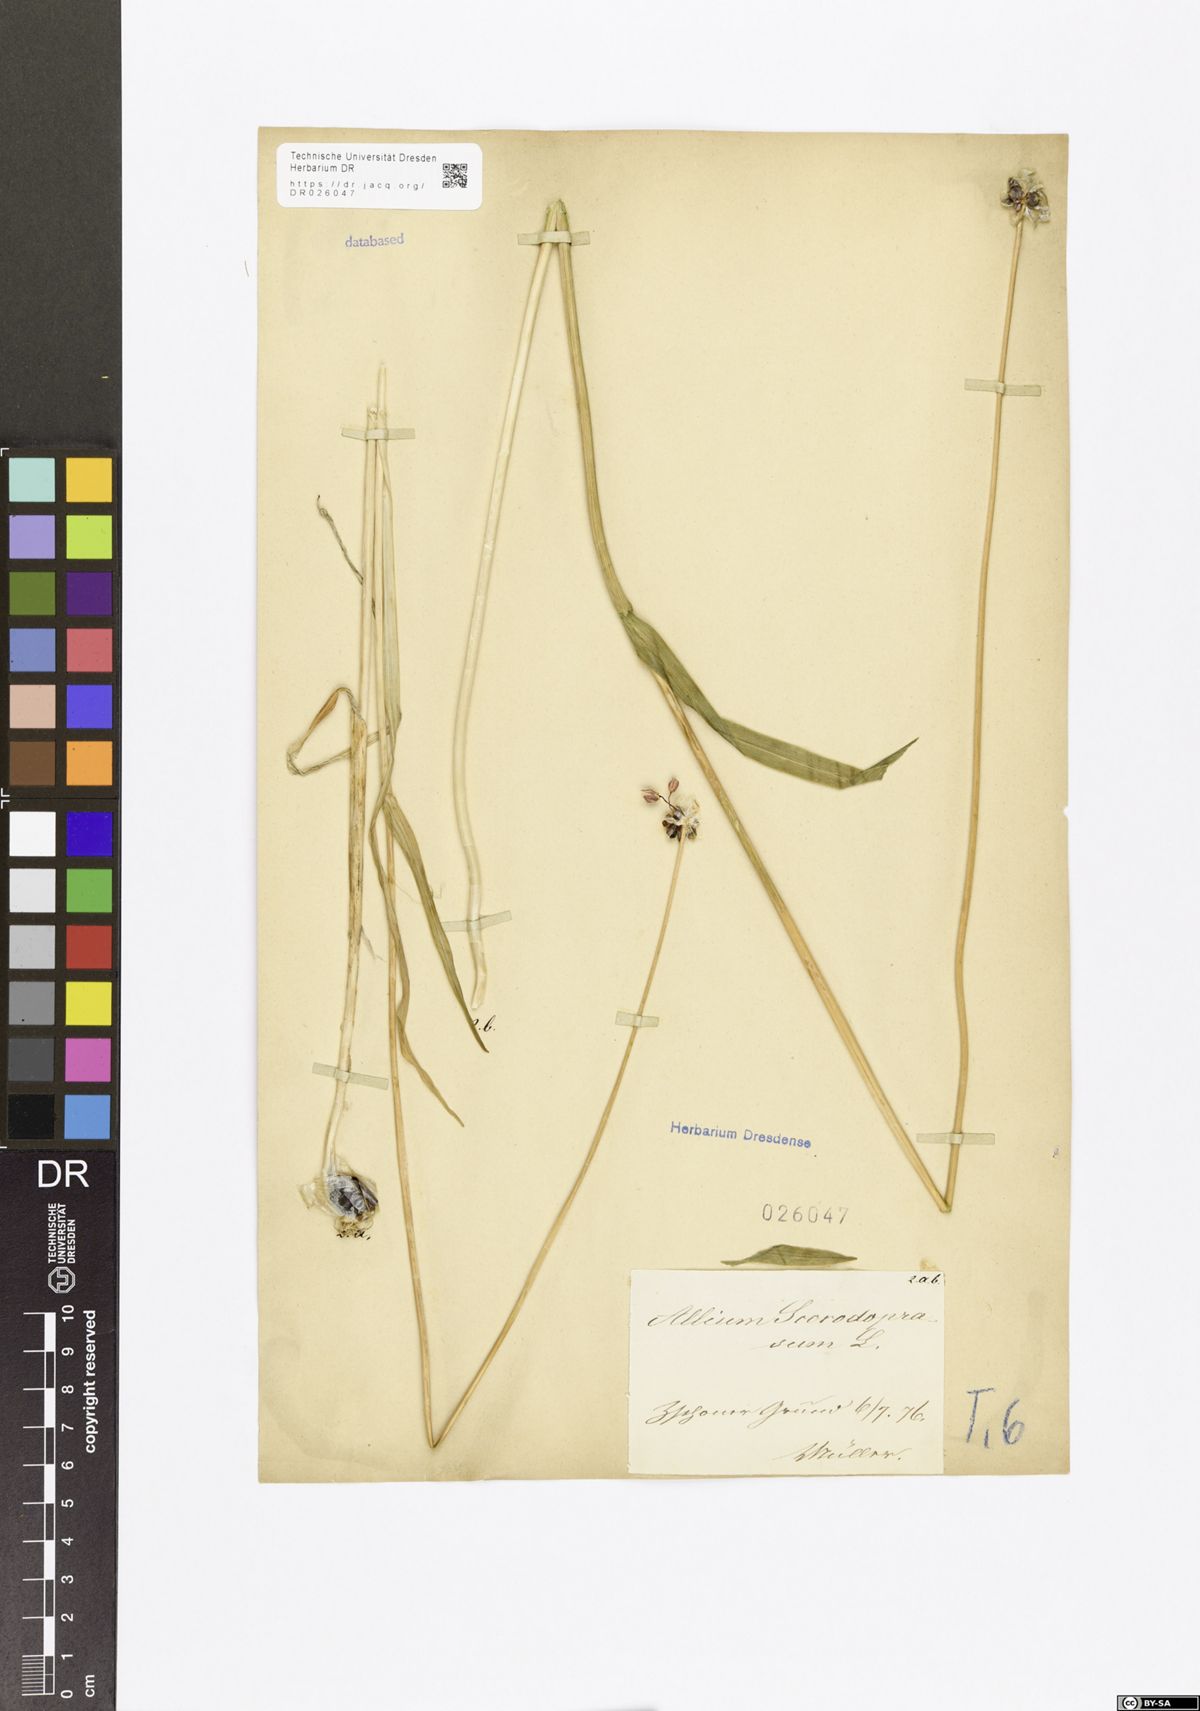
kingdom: Plantae
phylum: Tracheophyta
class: Liliopsida
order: Asparagales
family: Amaryllidaceae
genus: Allium
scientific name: Allium scorodoprasum
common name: Sand leek
